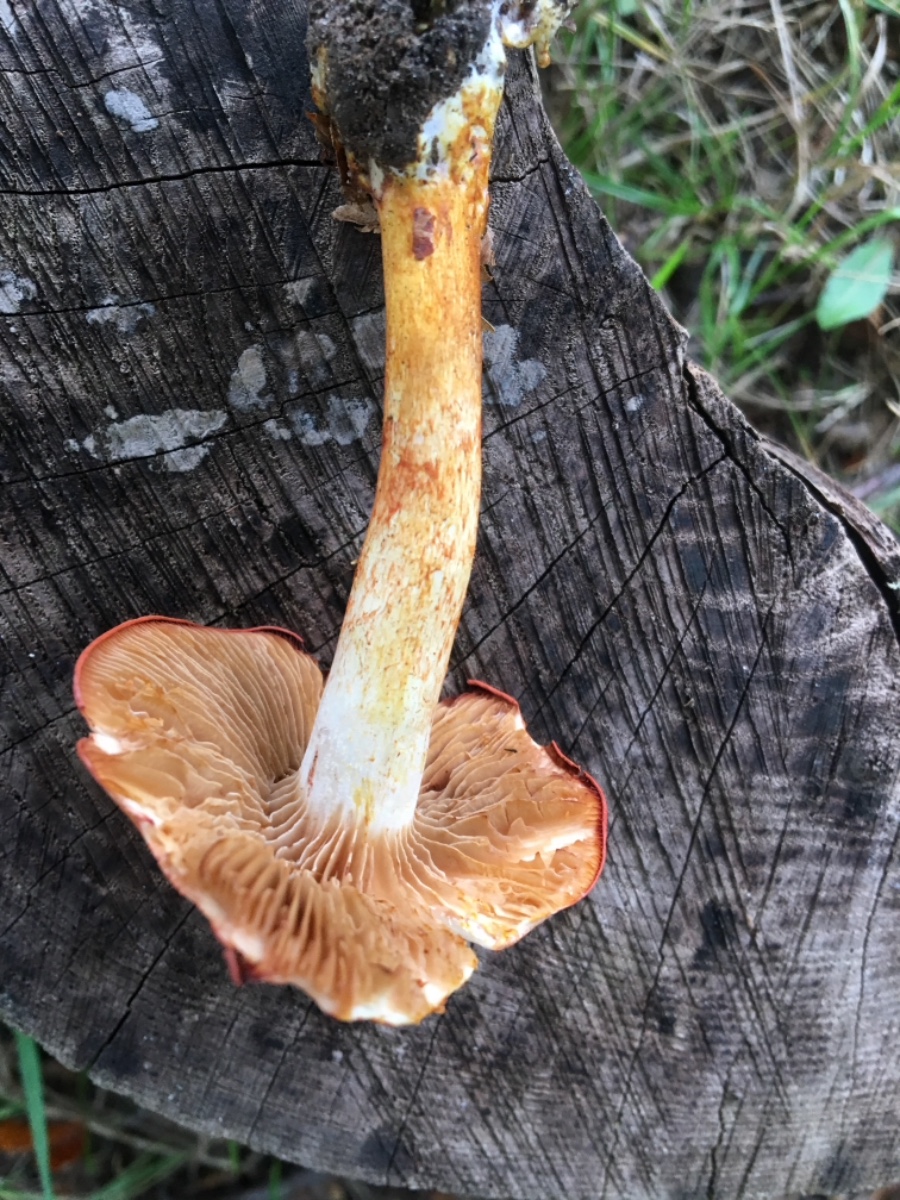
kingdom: Fungi
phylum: Basidiomycota
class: Agaricomycetes
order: Agaricales
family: Cortinariaceae
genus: Cortinarius
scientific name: Cortinarius bolaris
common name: cinnoberskællet slørhat
